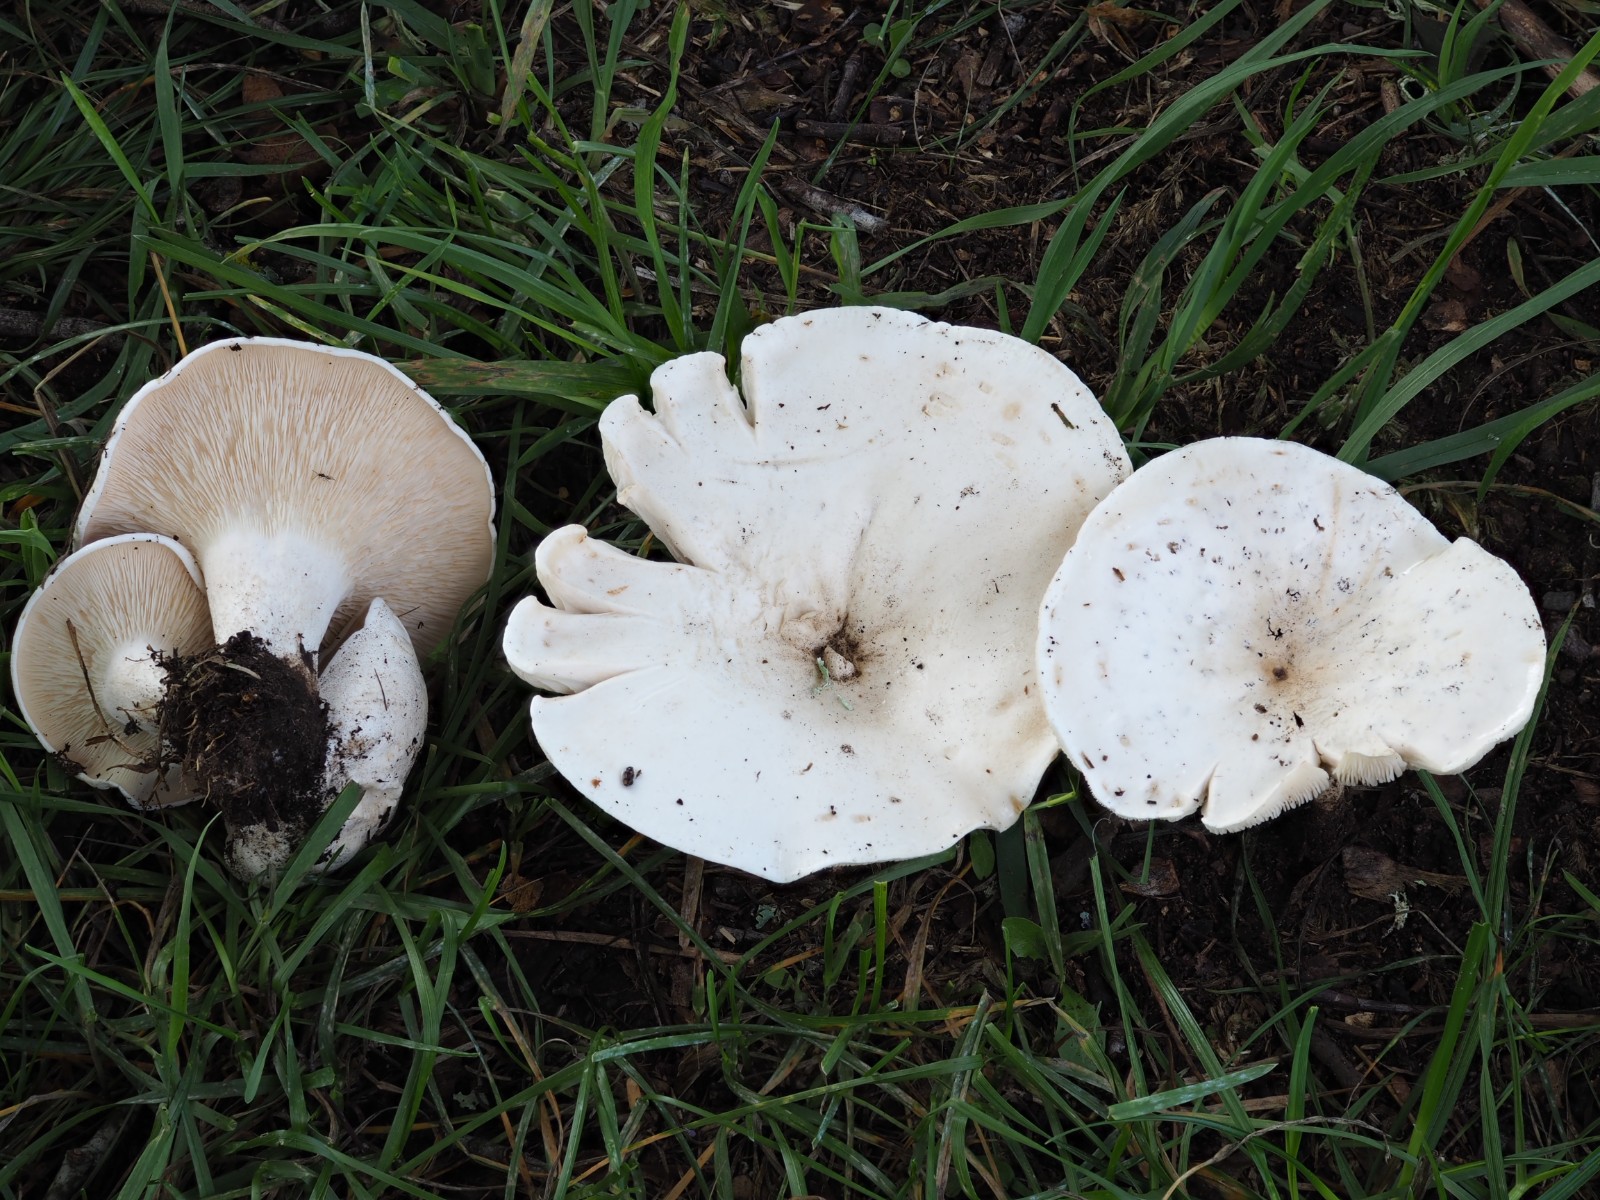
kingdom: Fungi
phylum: Basidiomycota
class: Agaricomycetes
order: Agaricales
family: Entolomataceae
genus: Clitopilus
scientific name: Clitopilus prunulus
